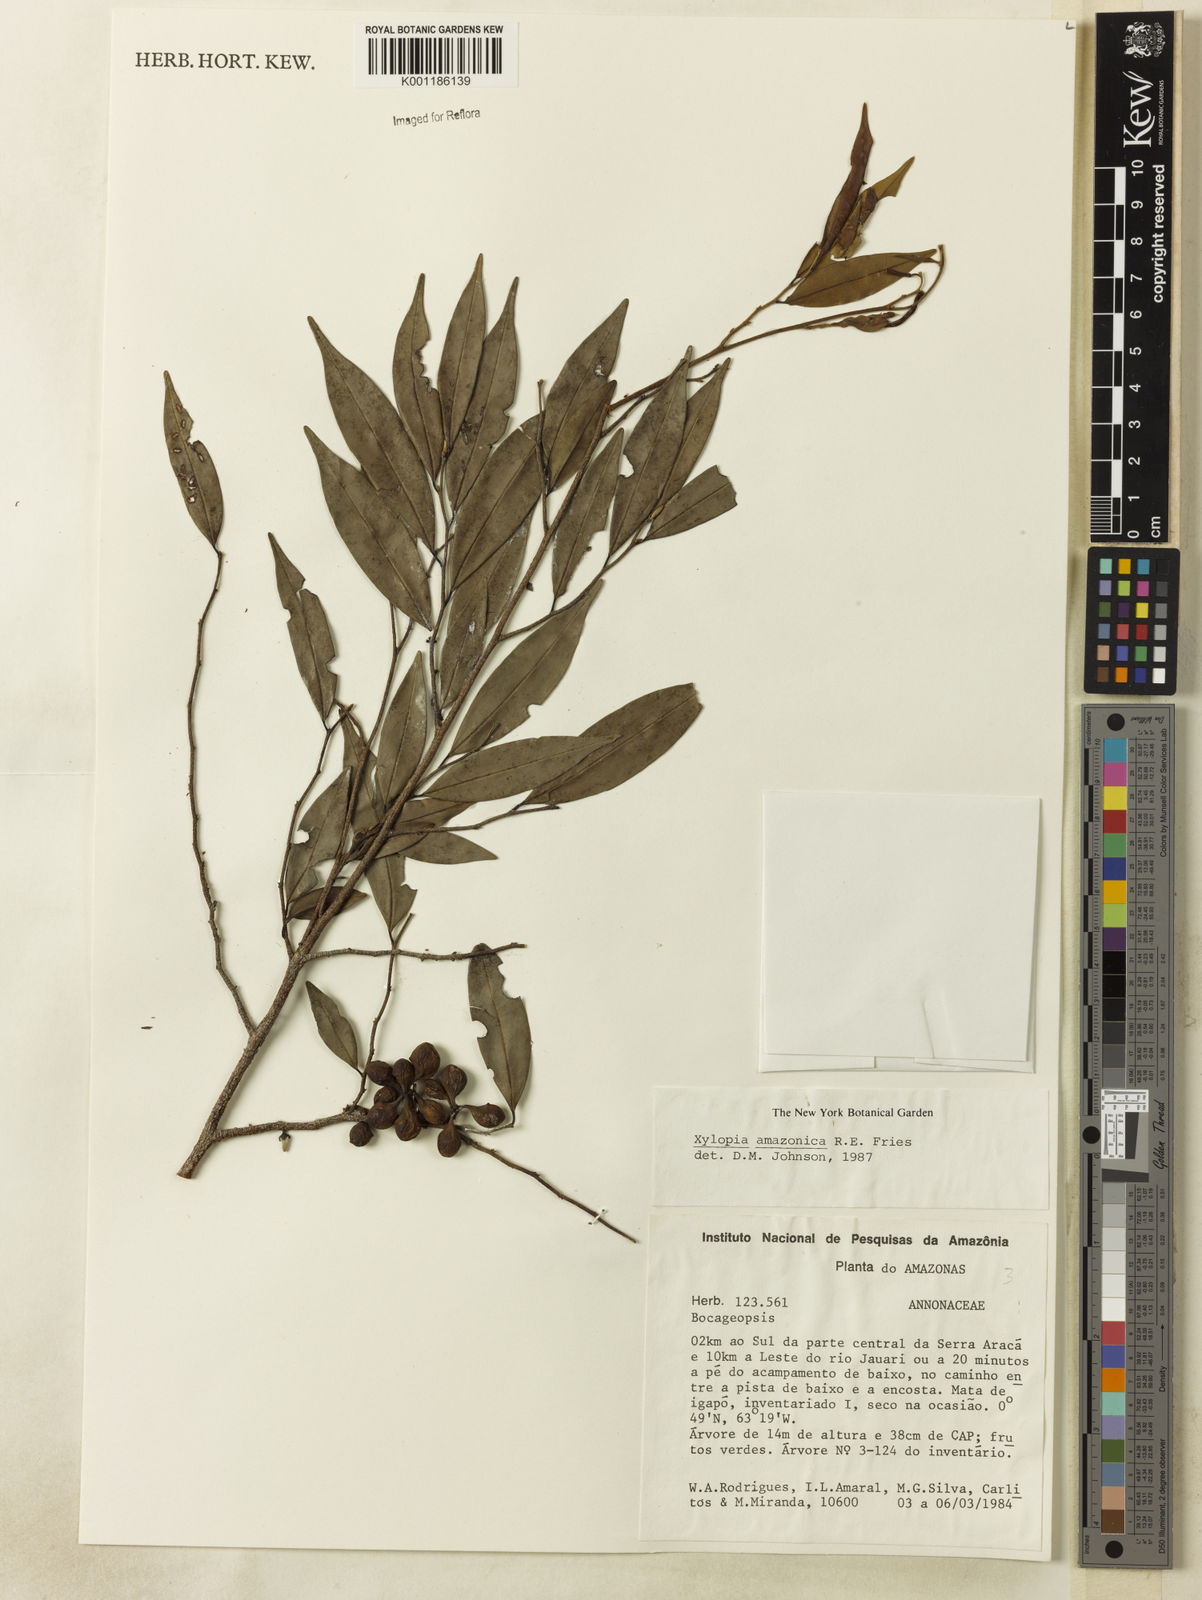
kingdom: Plantae
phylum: Tracheophyta
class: Magnoliopsida
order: Magnoliales
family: Annonaceae
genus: Xylopia
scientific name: Xylopia amazonica
